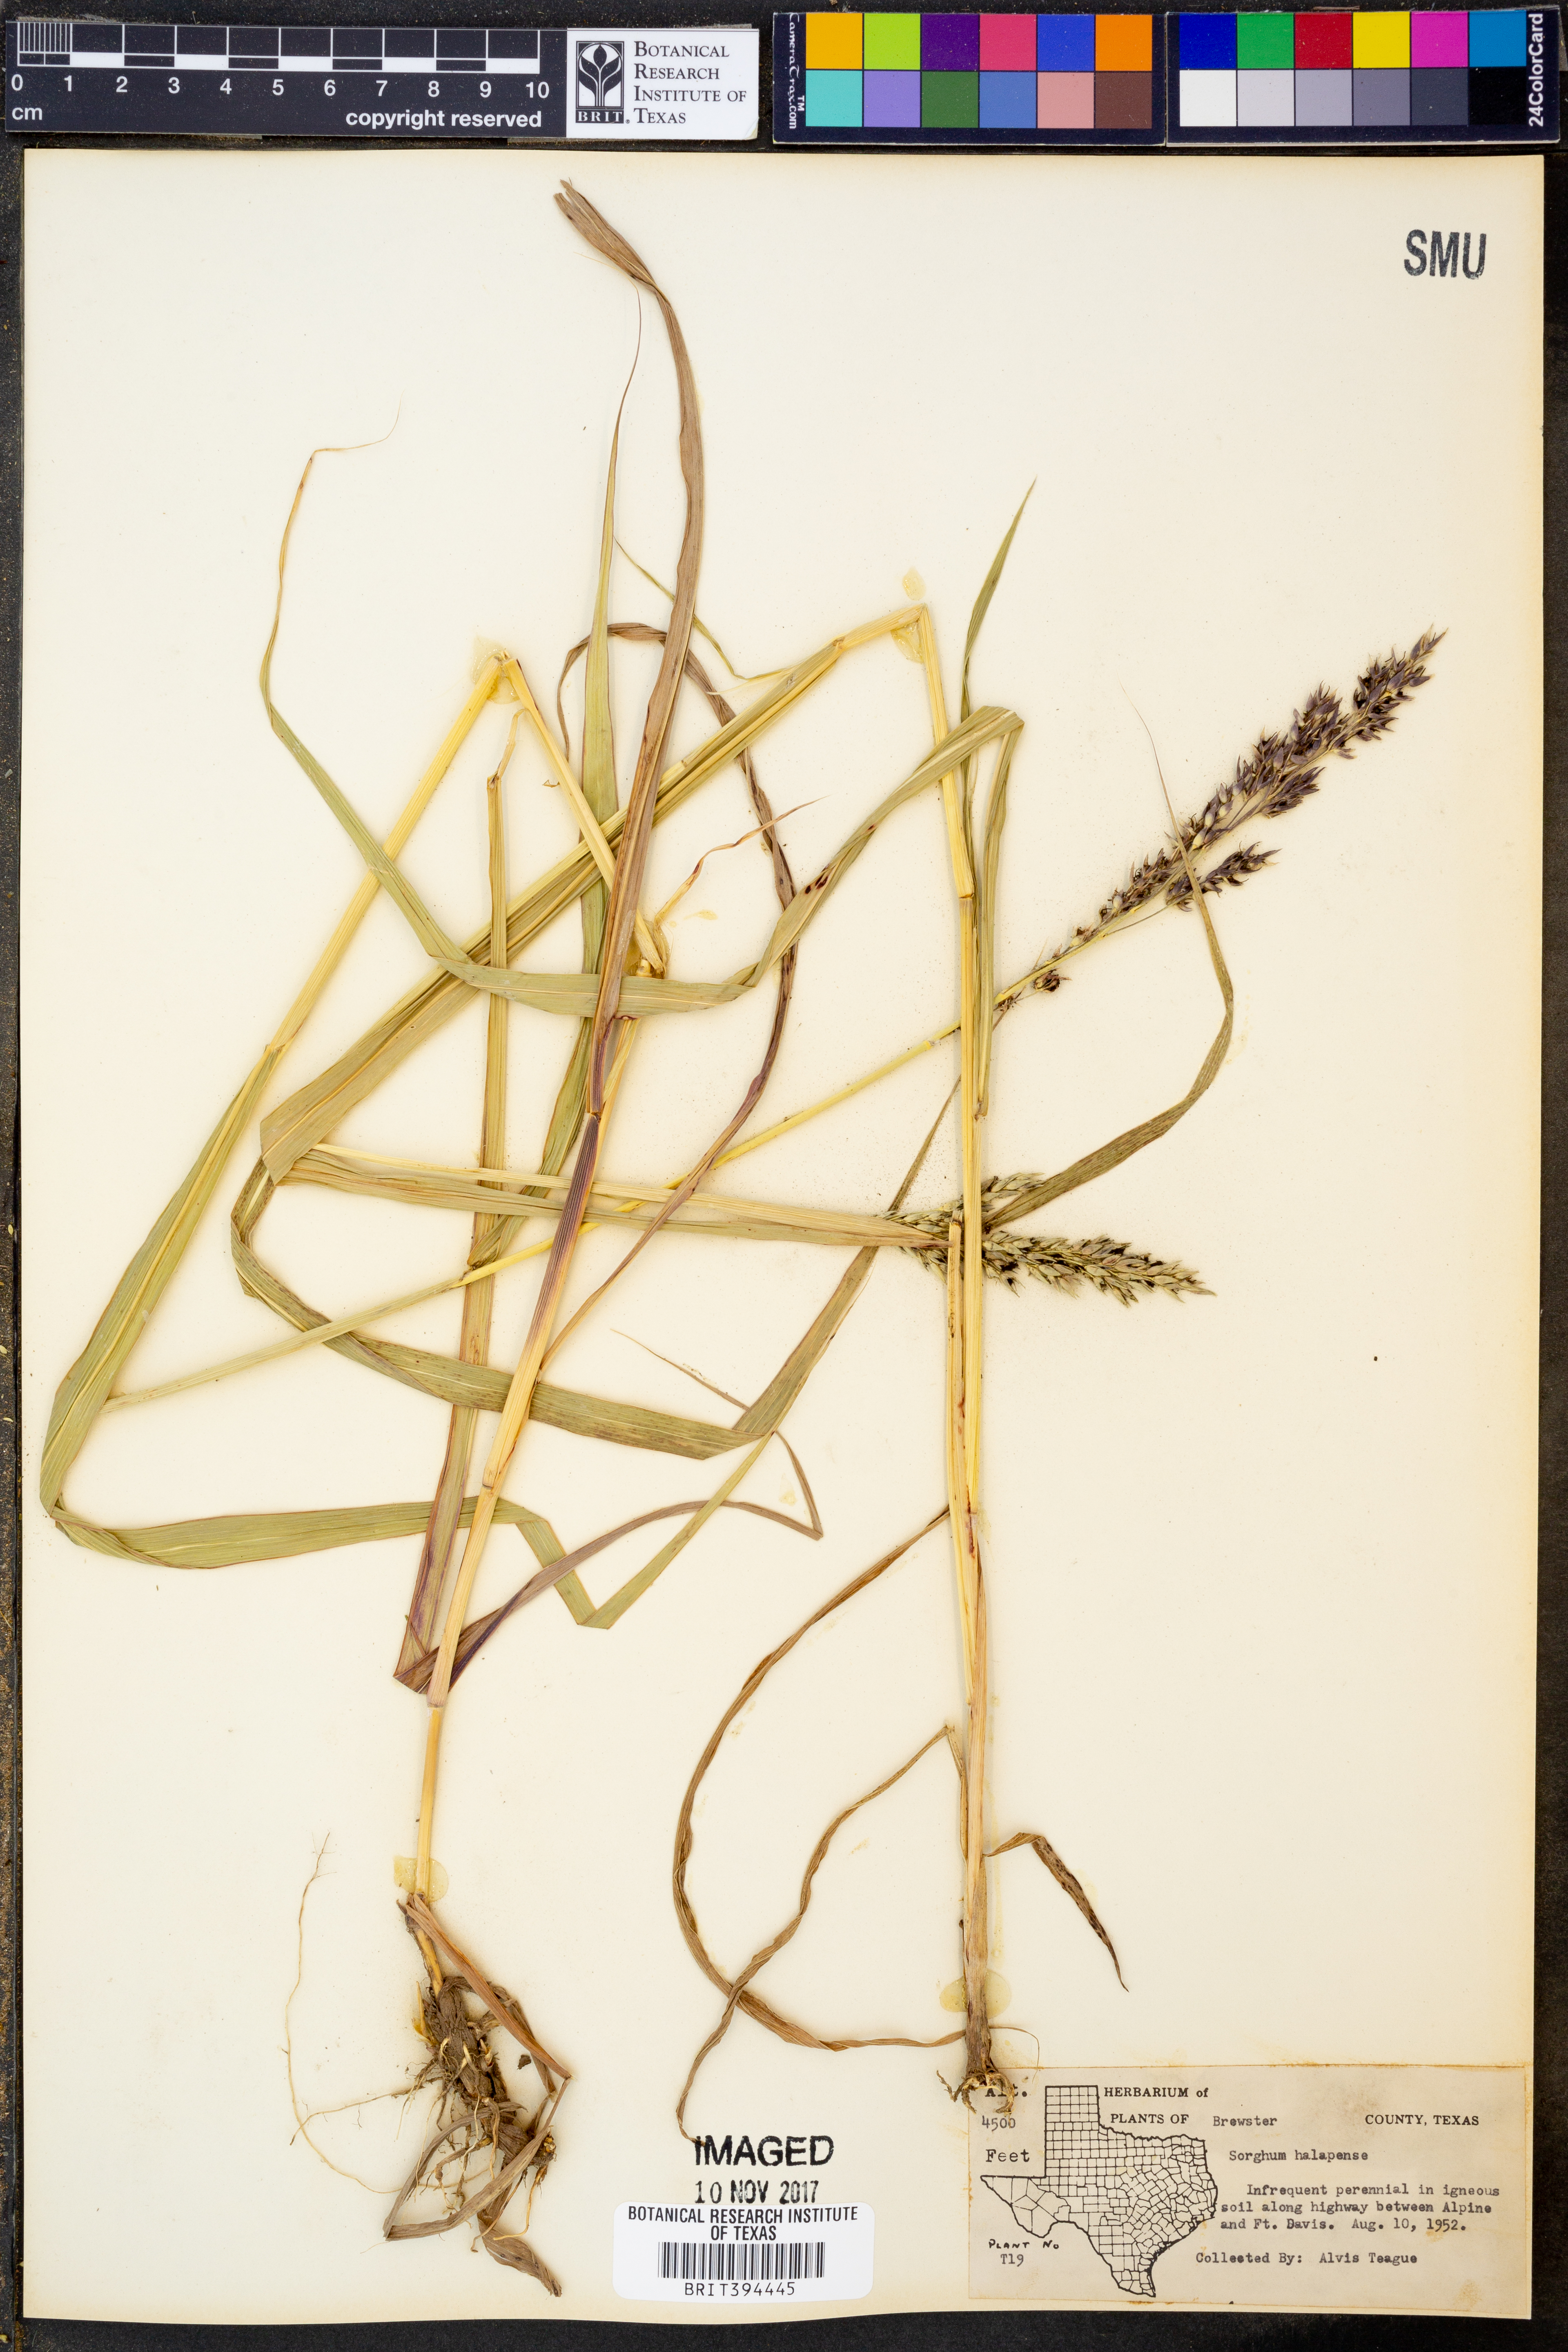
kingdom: Plantae
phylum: Tracheophyta
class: Liliopsida
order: Poales
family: Poaceae
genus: Sorghum
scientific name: Sorghum halepense
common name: Johnson-grass
